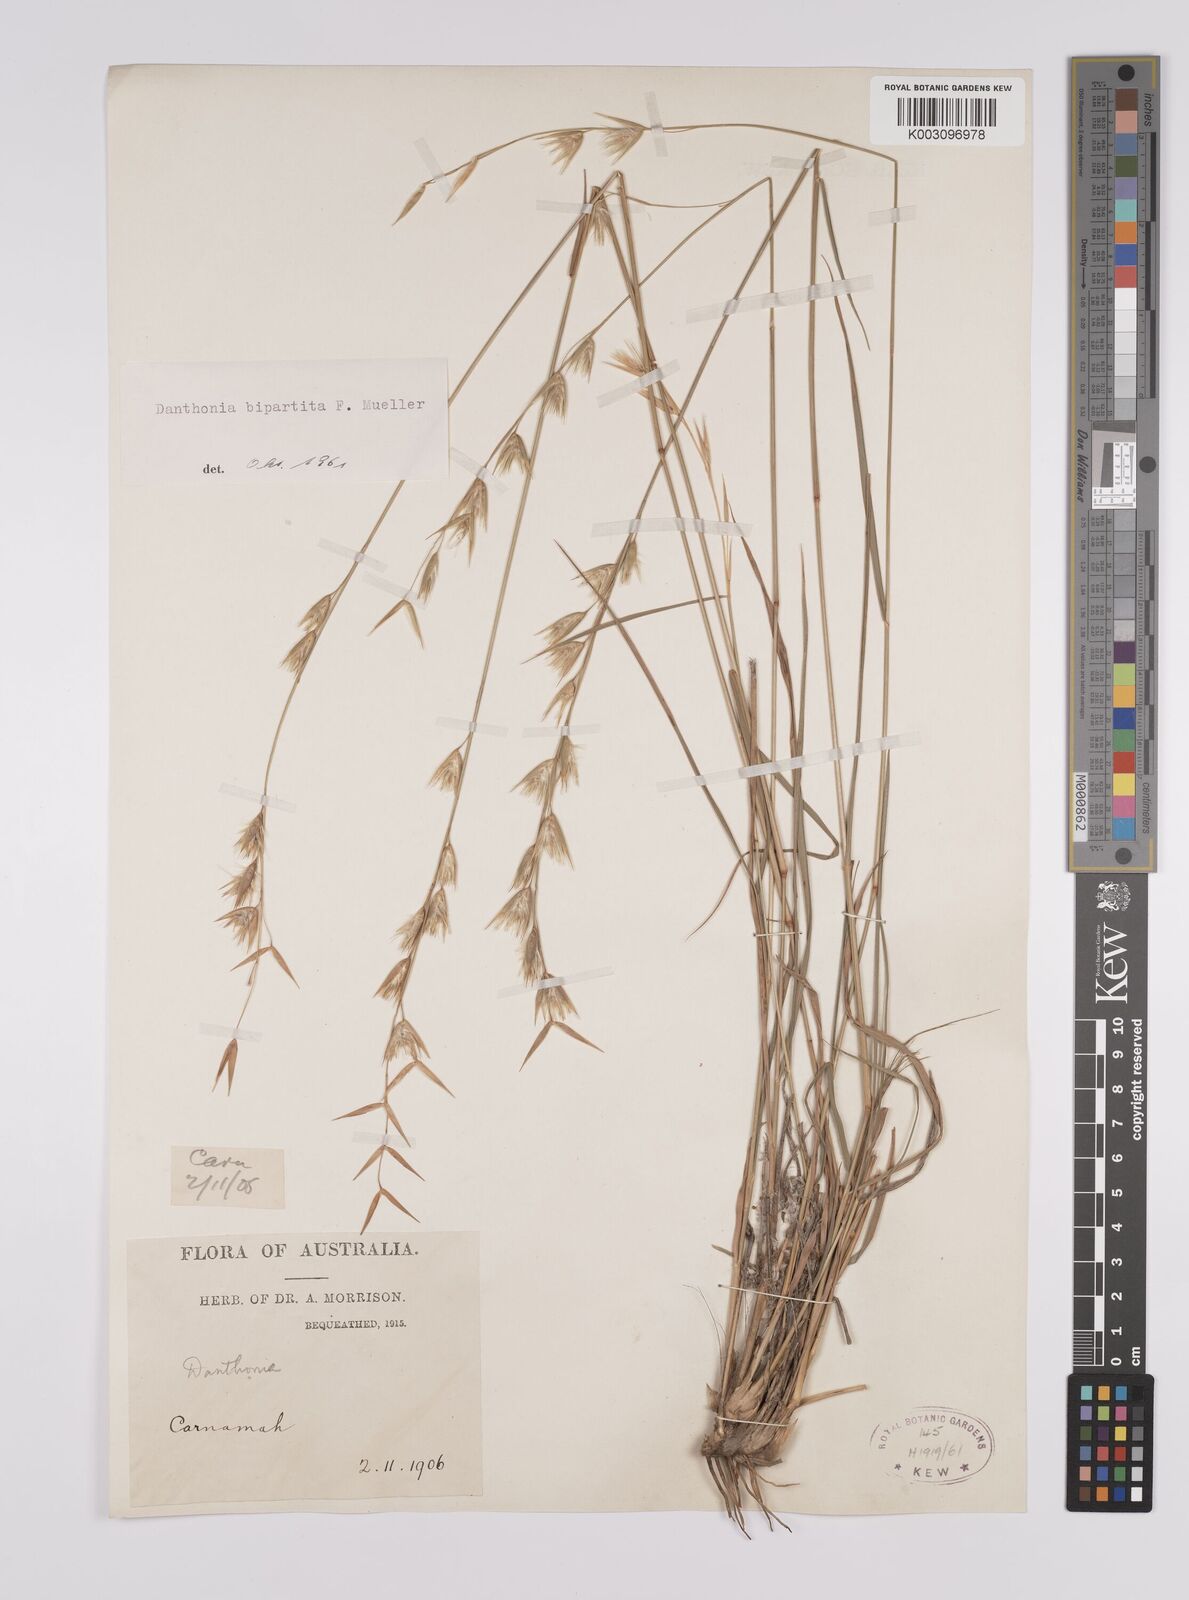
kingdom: Plantae
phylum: Tracheophyta
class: Liliopsida
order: Poales
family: Poaceae
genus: Monachather
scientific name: Monachather paradoxus
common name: Bandicoot grass
